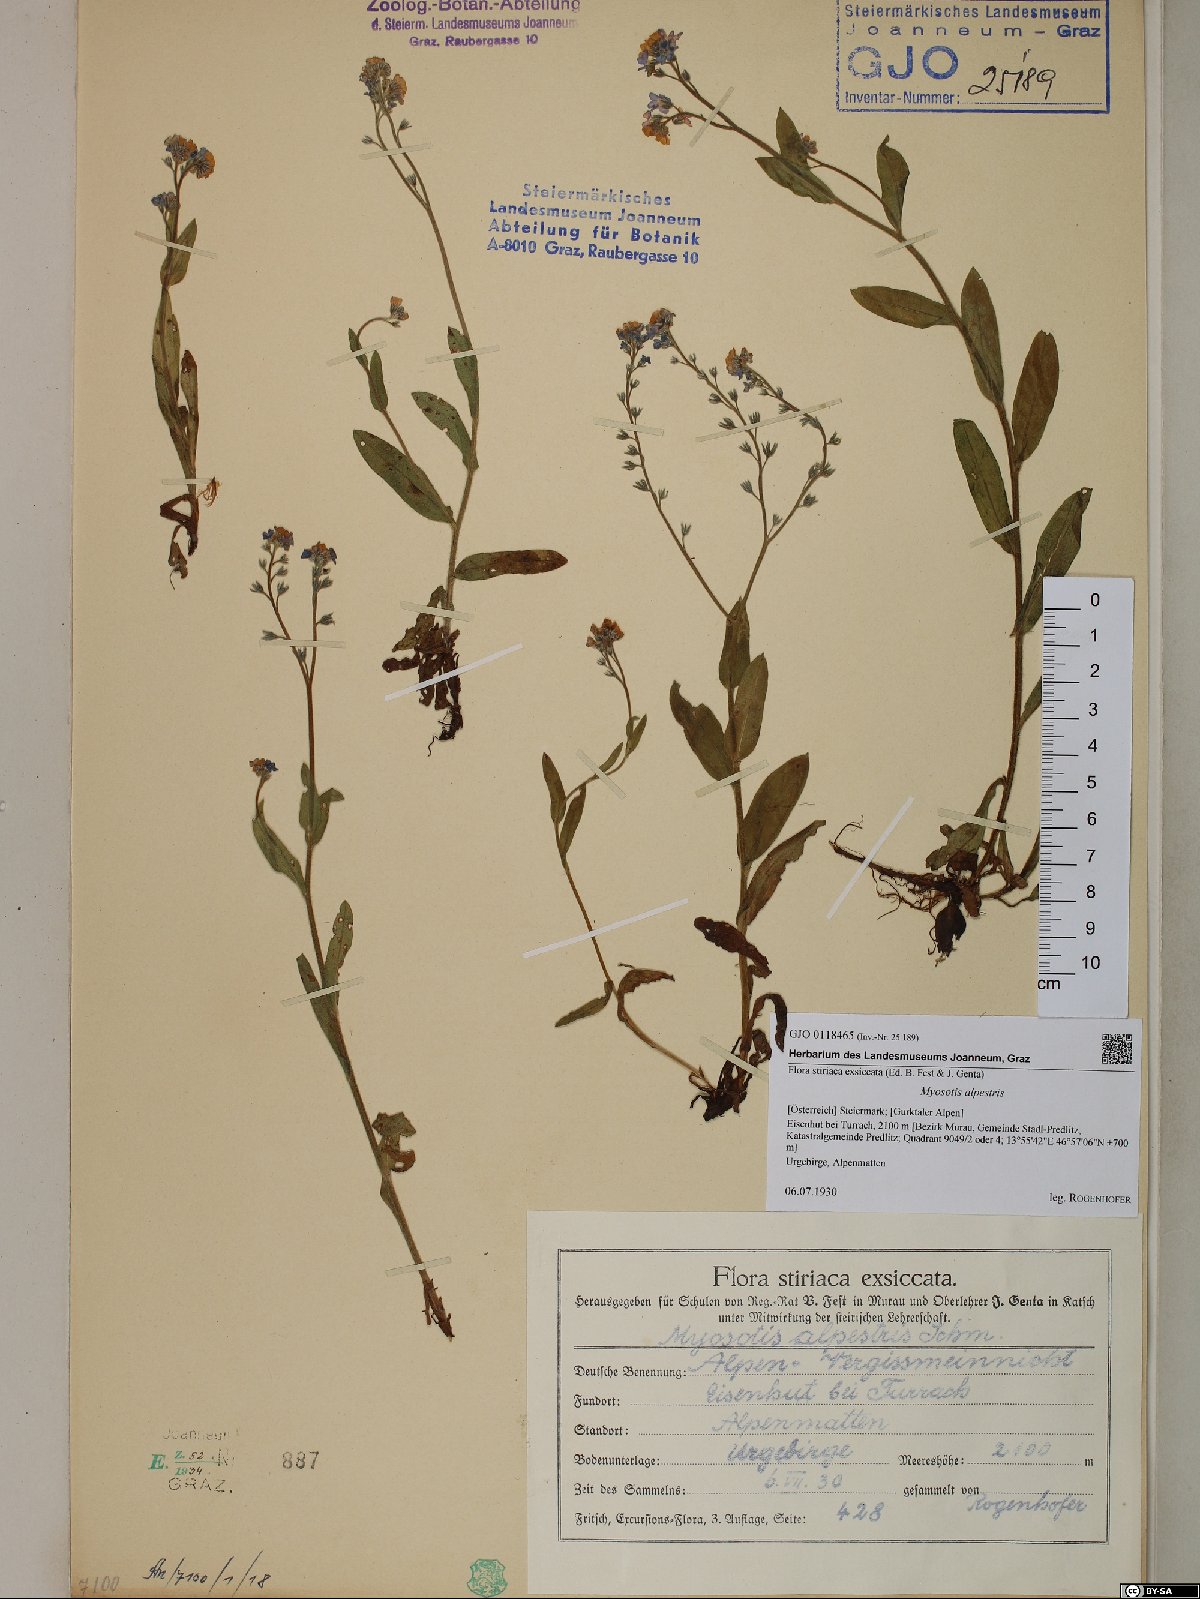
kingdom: Plantae
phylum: Tracheophyta
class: Magnoliopsida
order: Boraginales
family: Boraginaceae
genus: Myosotis
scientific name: Myosotis alpestris
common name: Alpine forget-me-not
